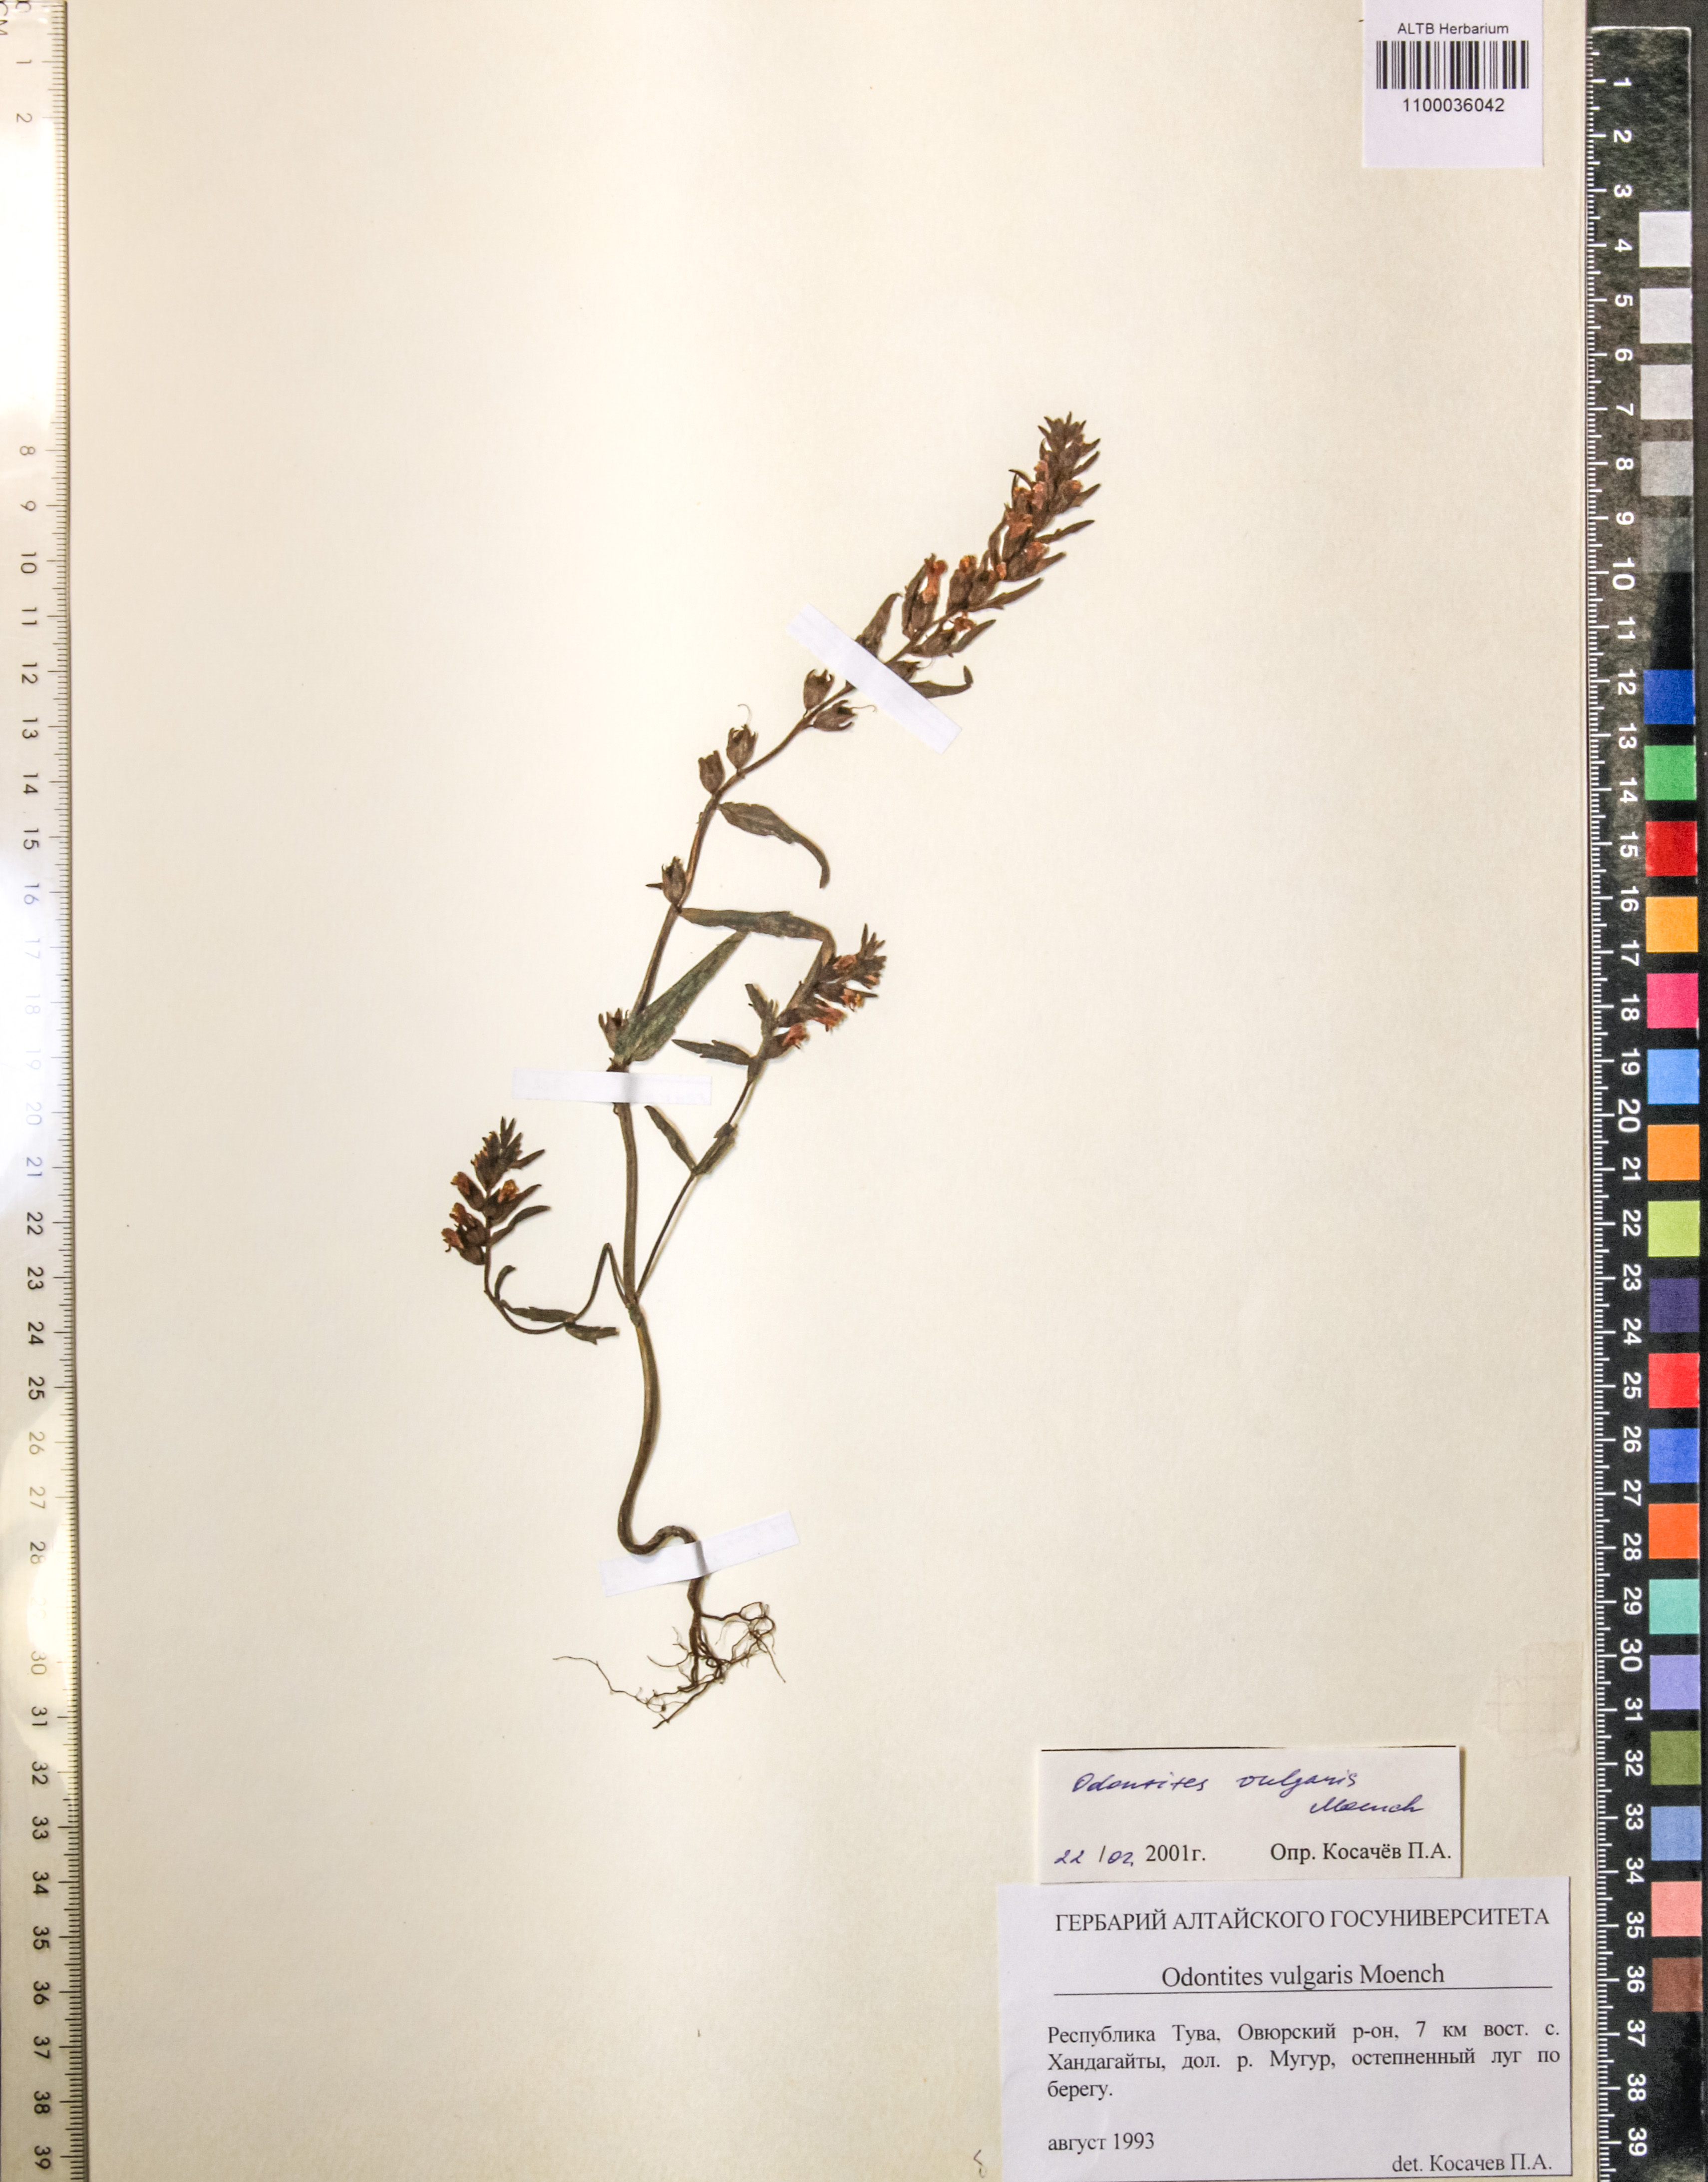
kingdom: Plantae
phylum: Tracheophyta
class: Magnoliopsida
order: Lamiales
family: Orobanchaceae
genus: Odontites
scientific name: Odontites vulgaris
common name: Broomrape
